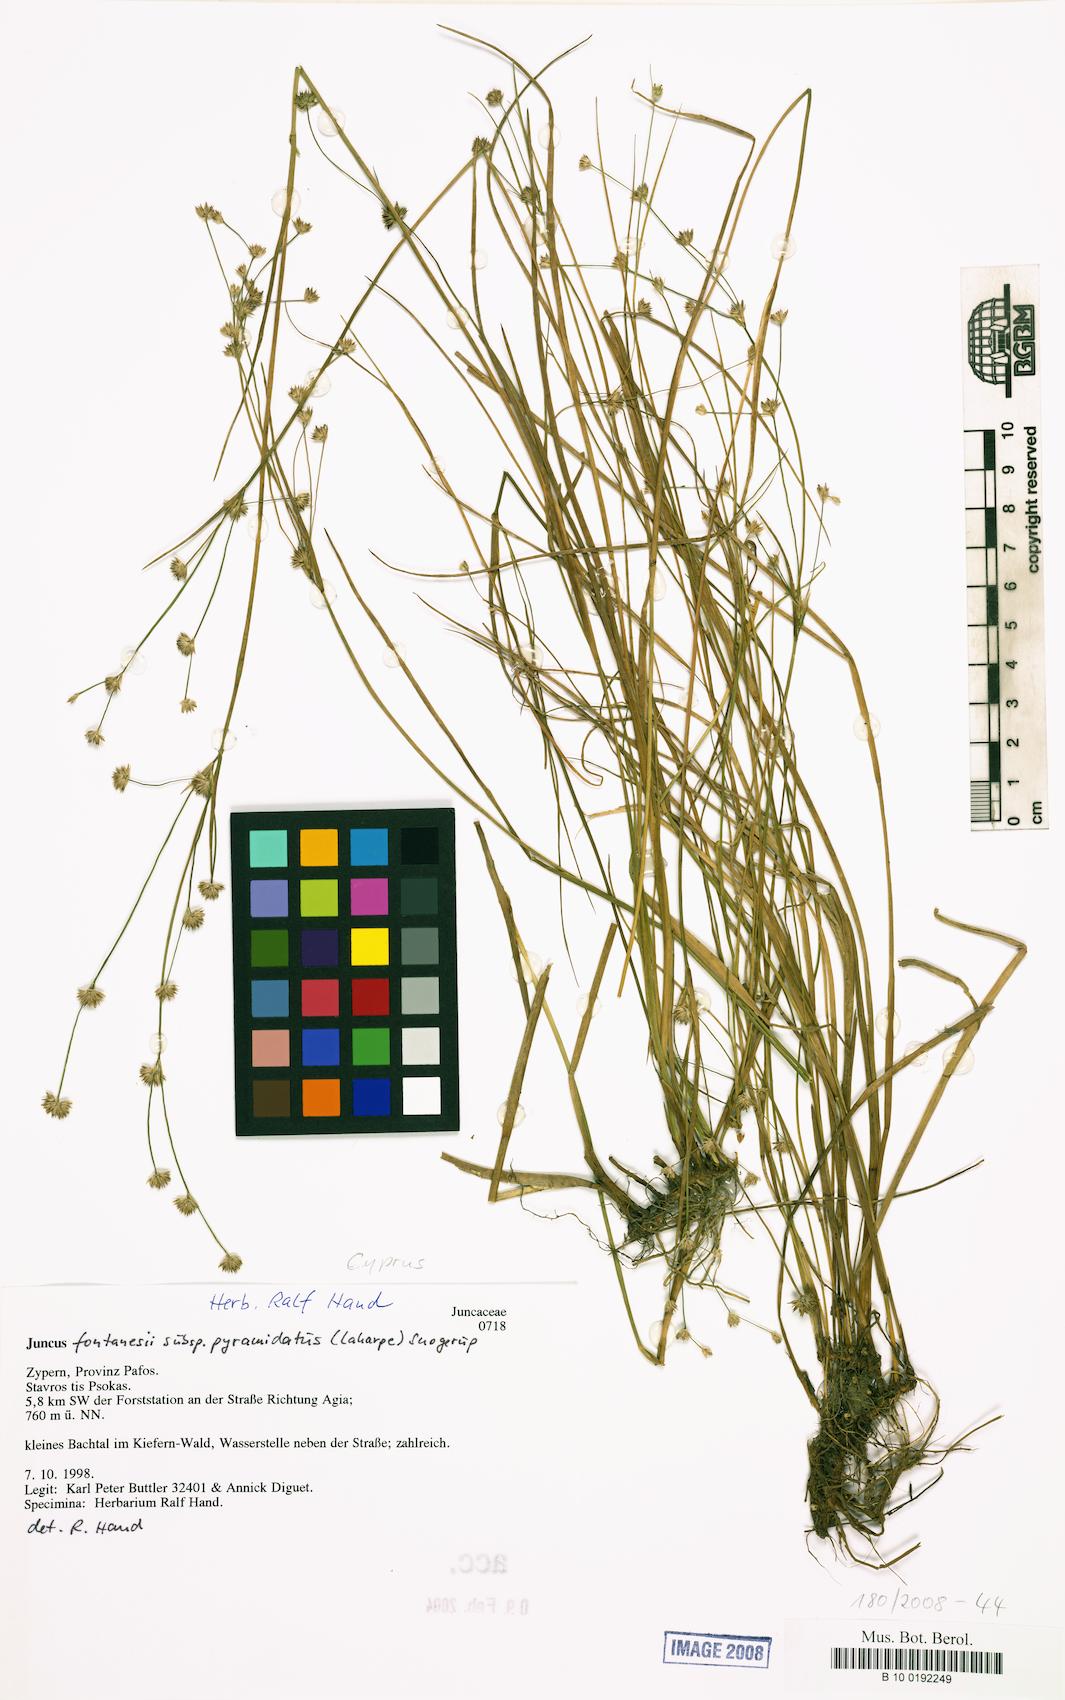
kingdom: Plantae
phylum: Tracheophyta
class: Liliopsida
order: Poales
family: Juncaceae
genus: Juncus
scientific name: Juncus fontanesii
